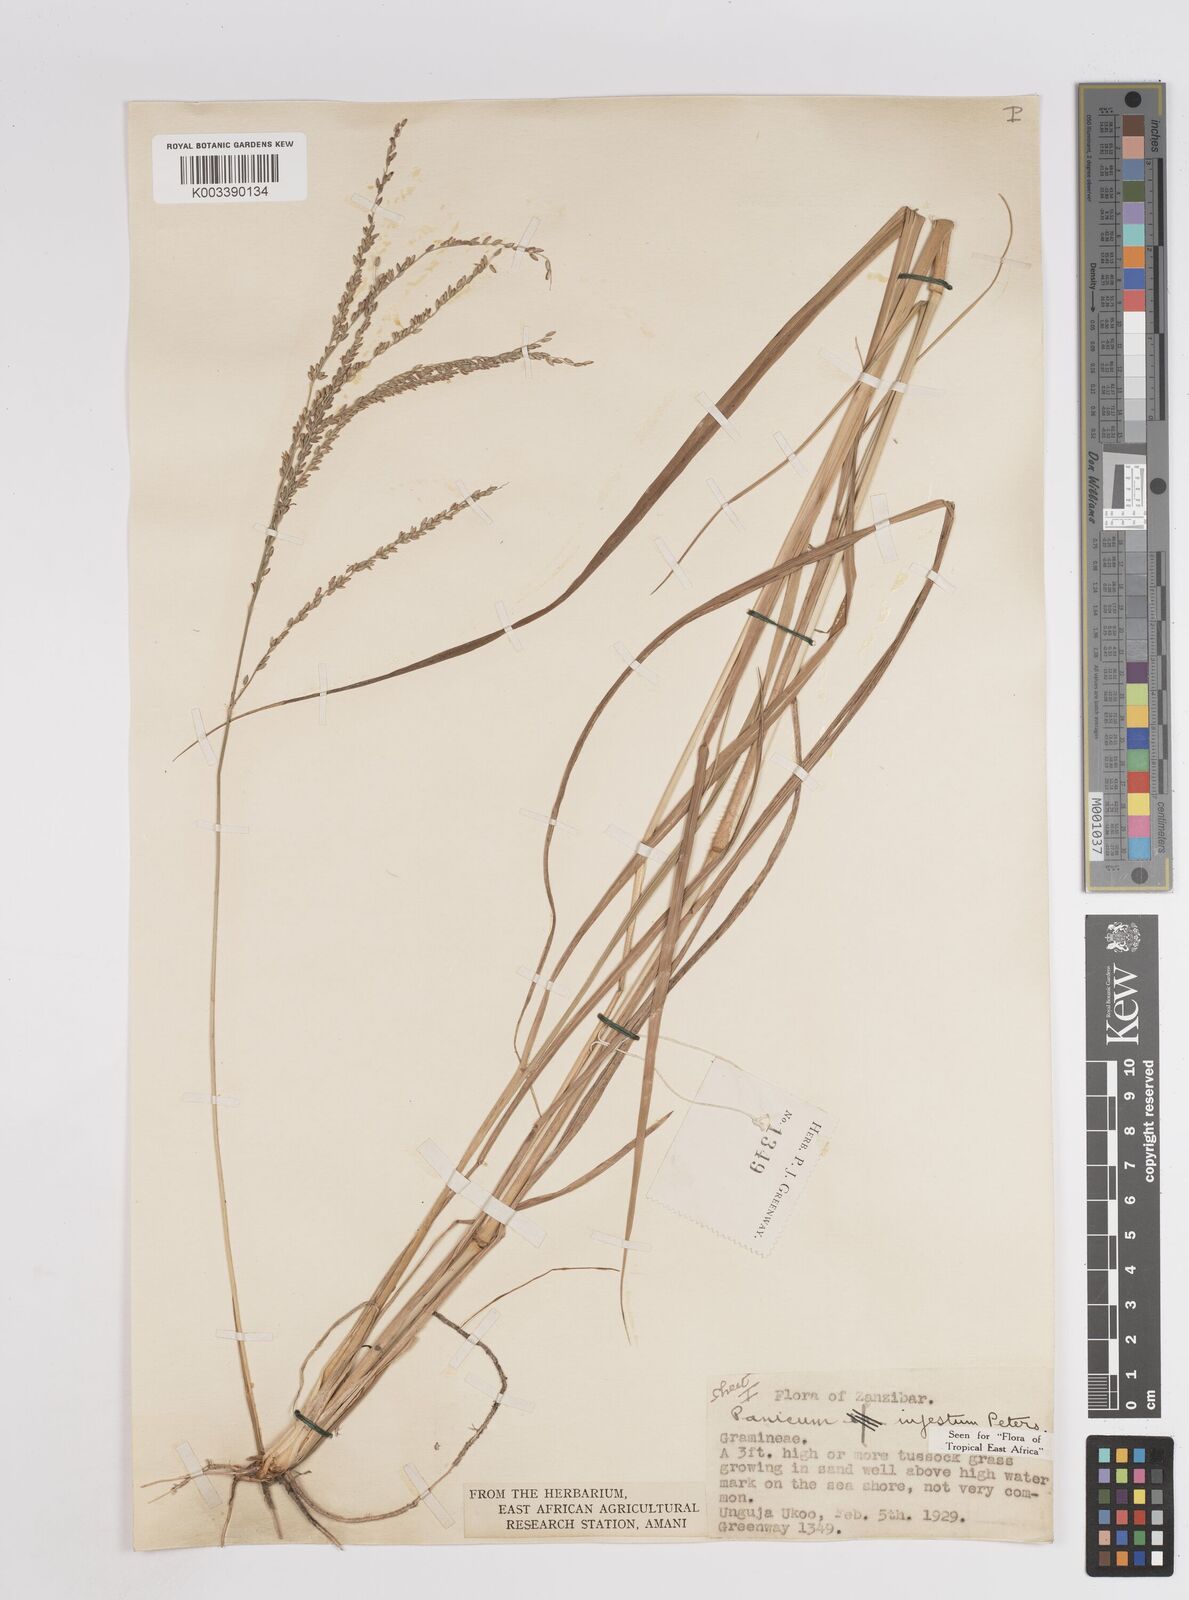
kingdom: Plantae
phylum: Tracheophyta
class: Liliopsida
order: Poales
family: Poaceae
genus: Megathyrsus
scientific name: Megathyrsus infestus
